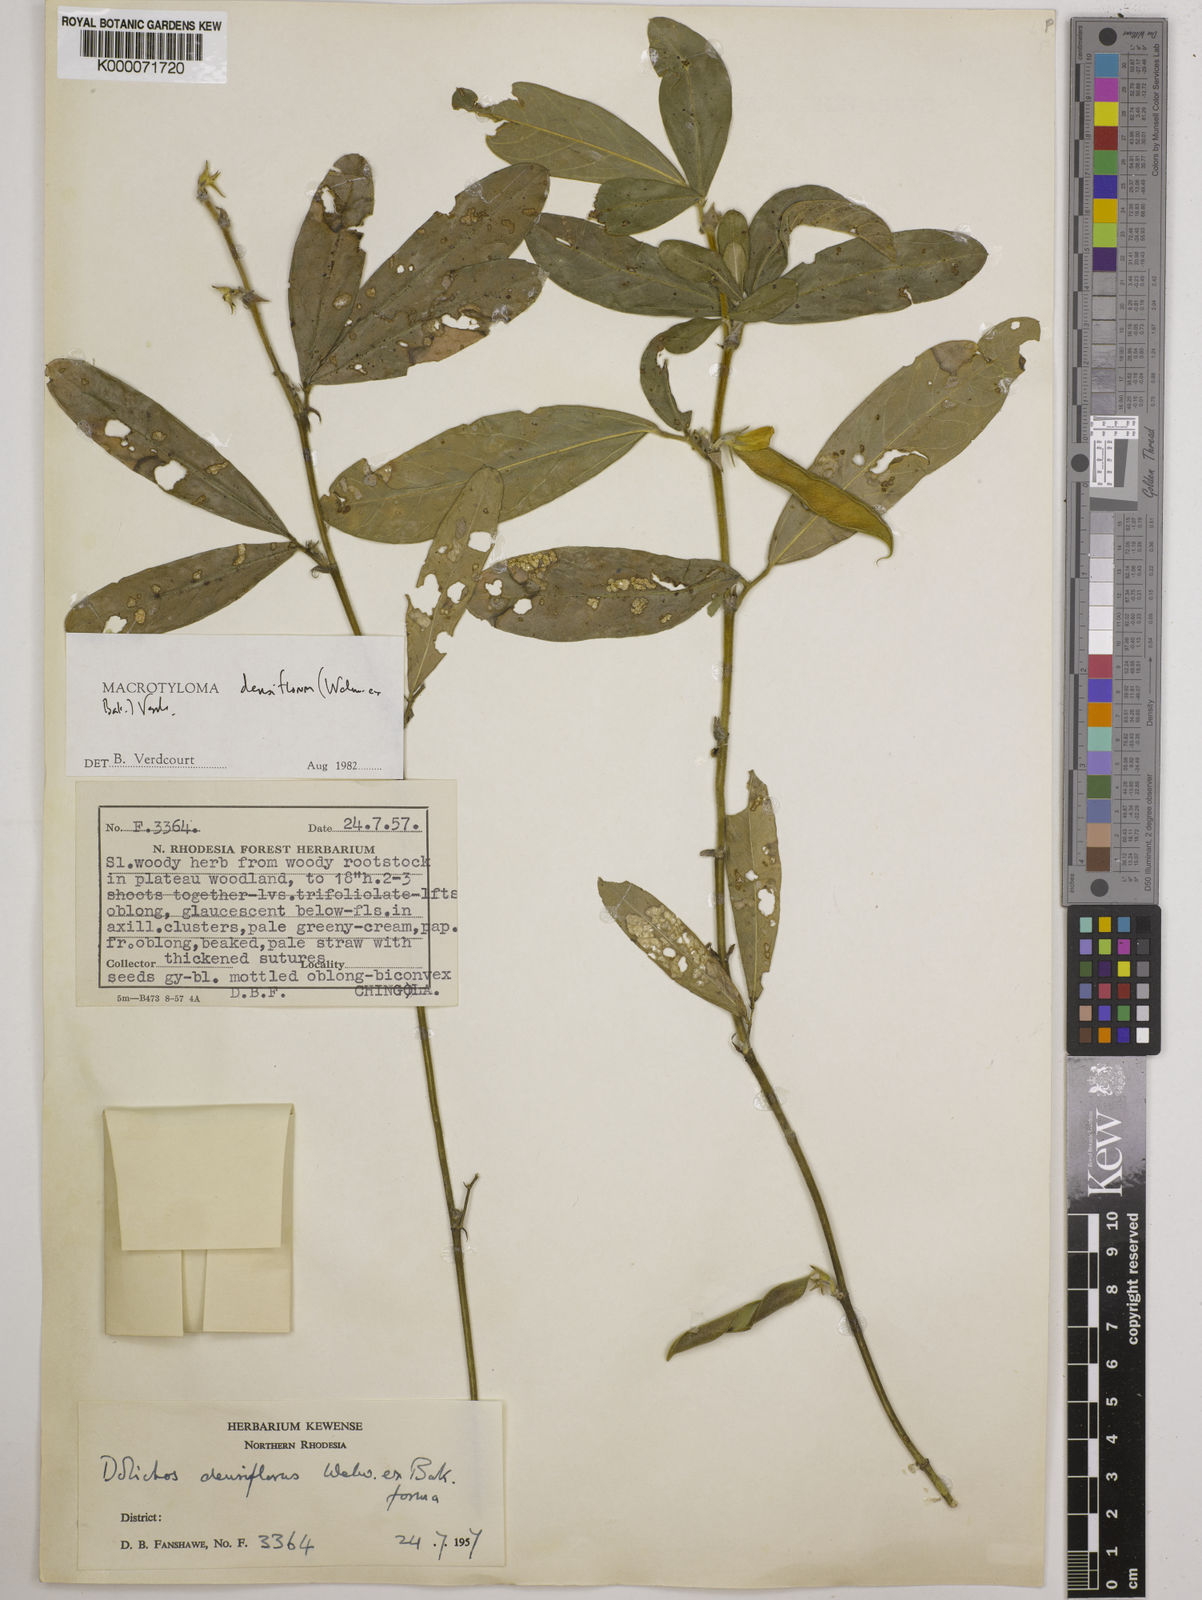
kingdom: Plantae
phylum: Tracheophyta
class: Magnoliopsida
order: Fabales
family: Fabaceae
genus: Macrotyloma
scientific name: Macrotyloma densiflorum
